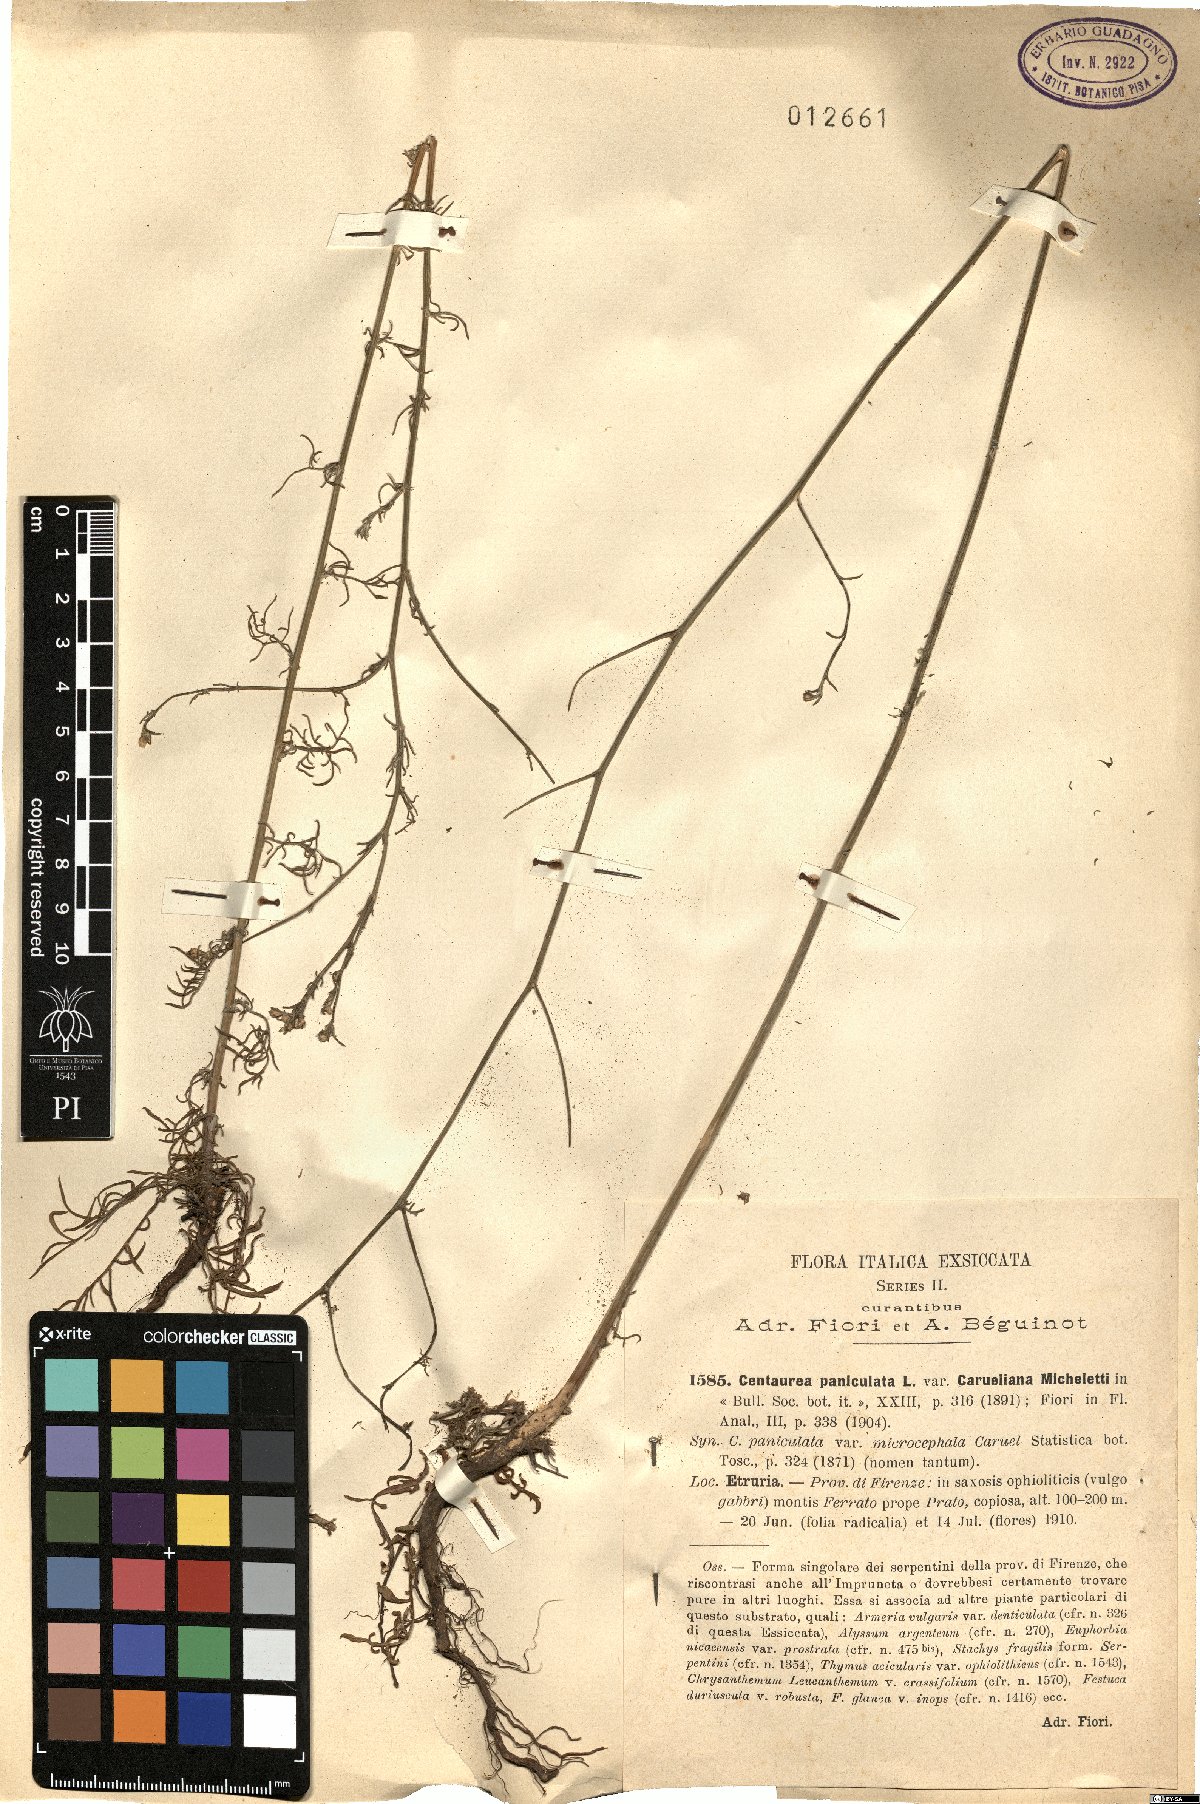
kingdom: Plantae
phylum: Tracheophyta
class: Magnoliopsida
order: Asterales
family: Asteraceae
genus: Centaurea
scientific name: Centaurea aplolepa
